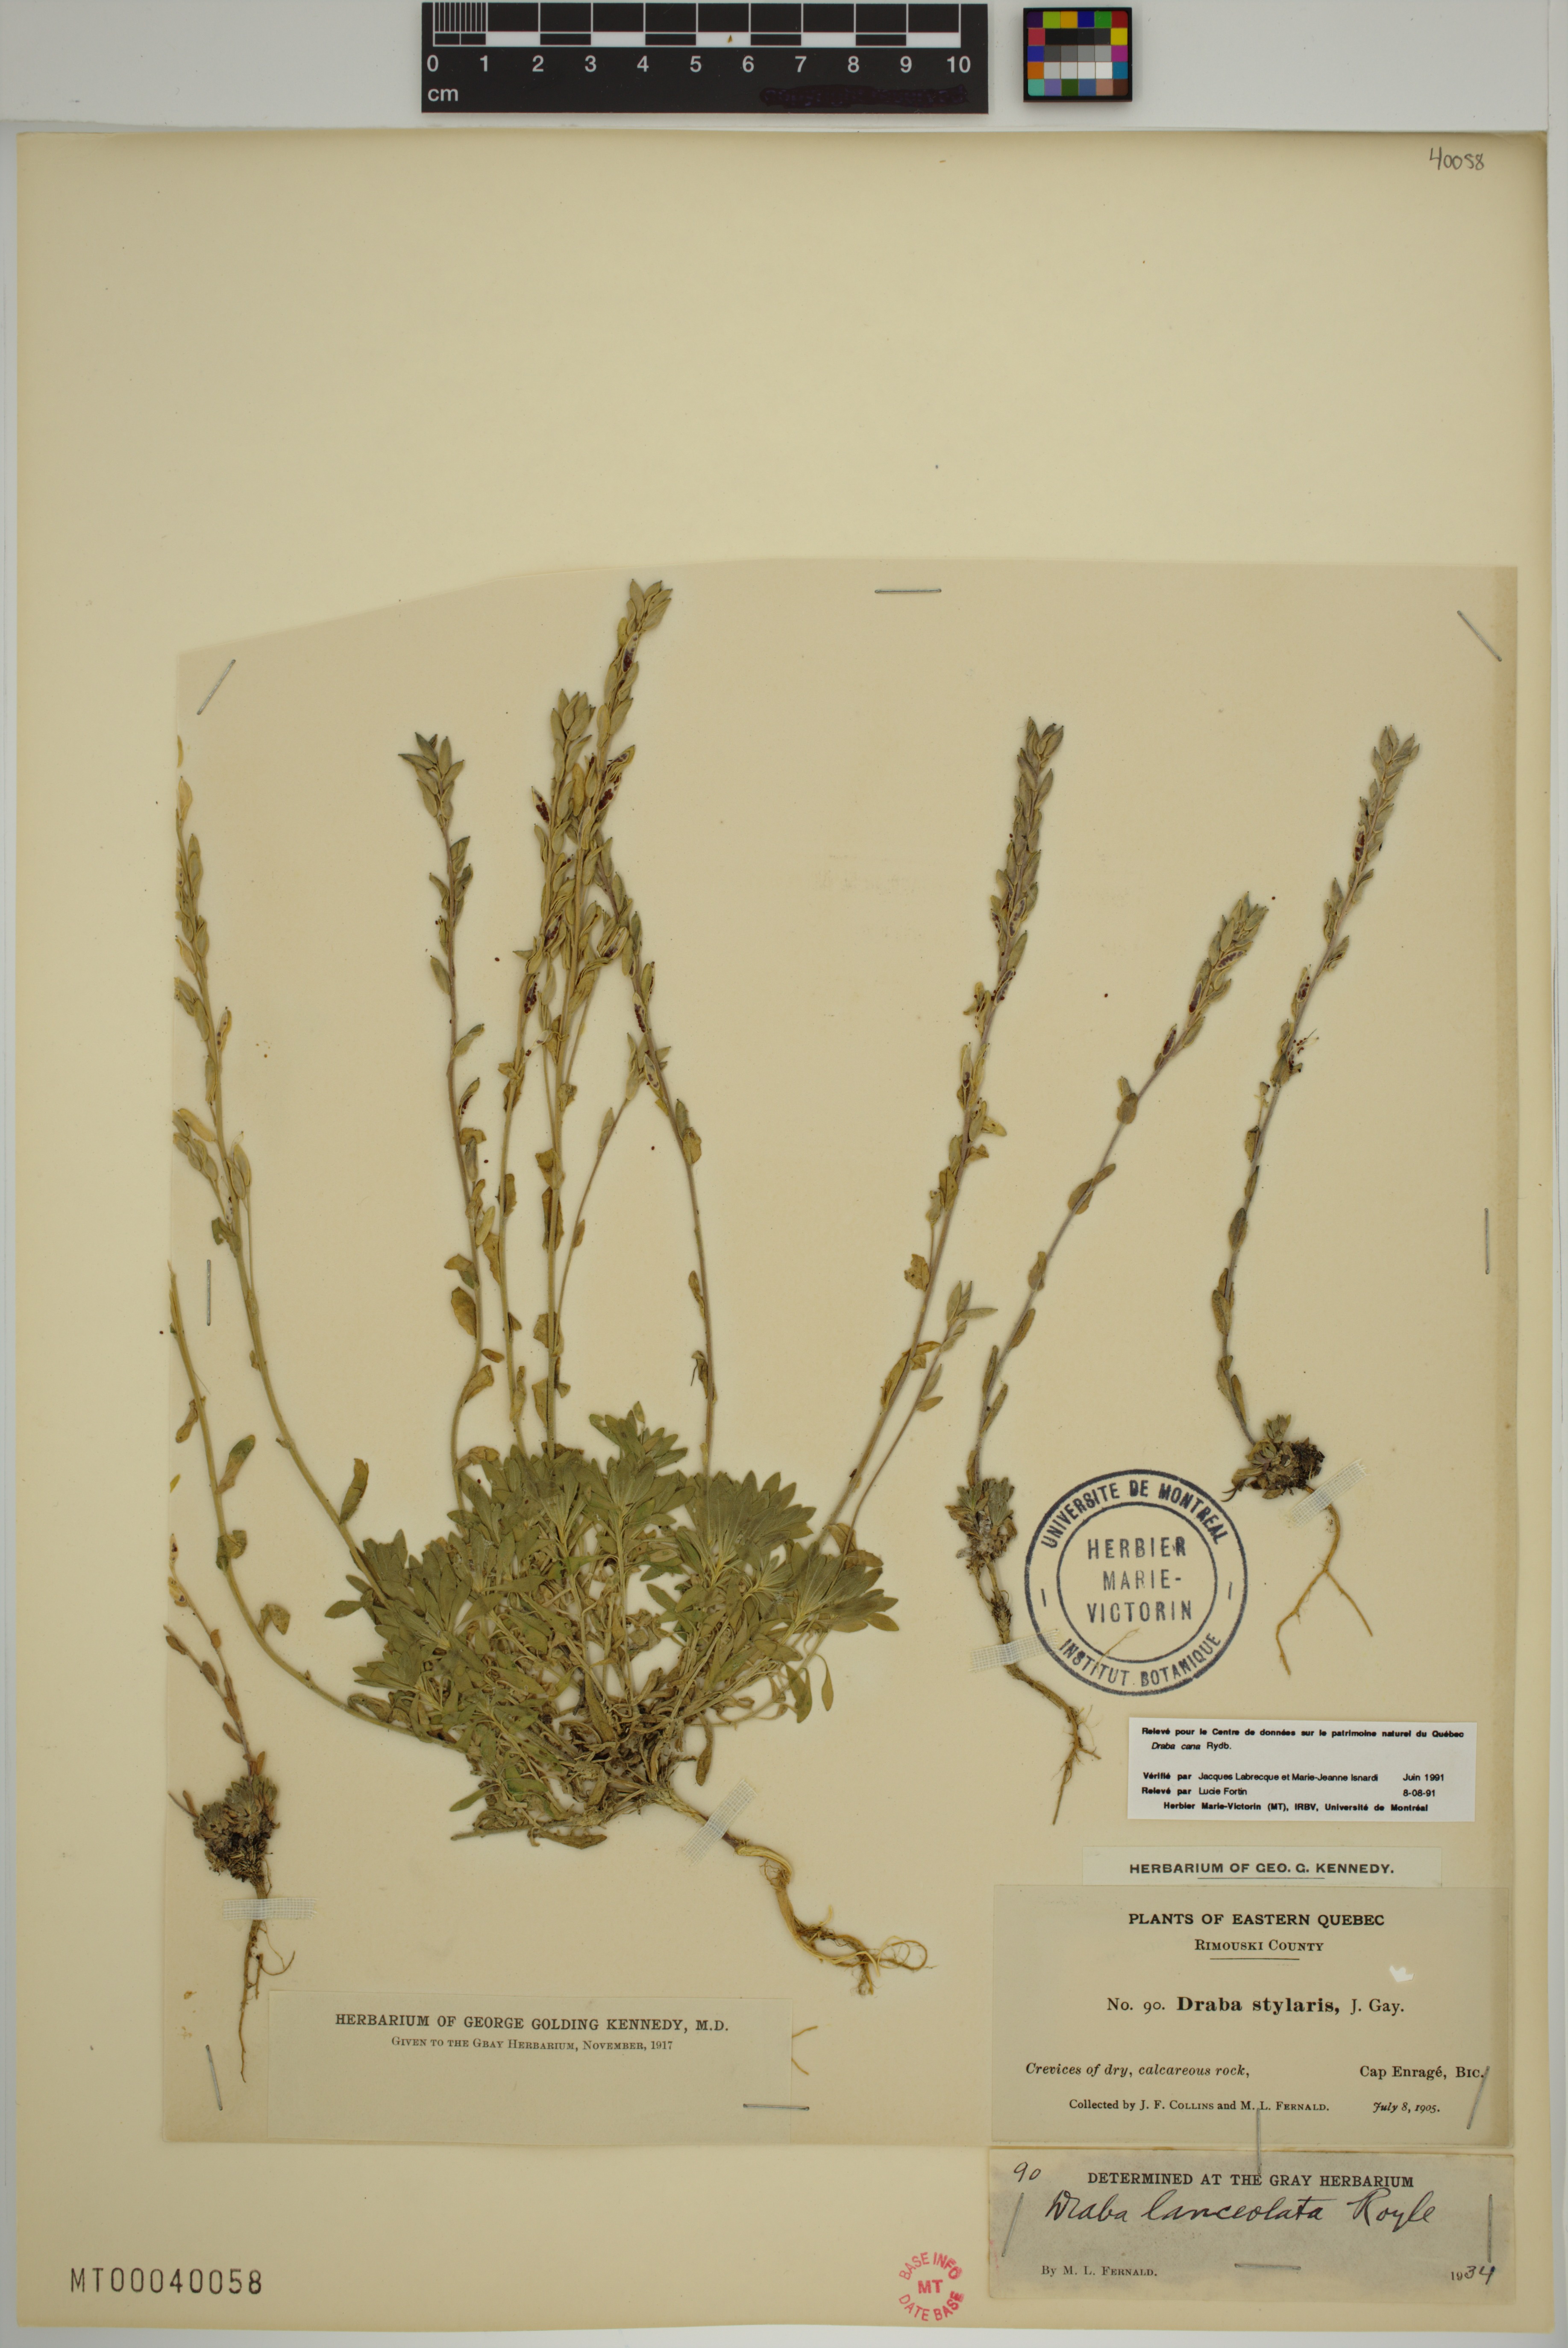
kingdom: Plantae
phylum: Tracheophyta
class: Magnoliopsida
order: Brassicales
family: Brassicaceae
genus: Draba
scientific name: Draba lanceolata
